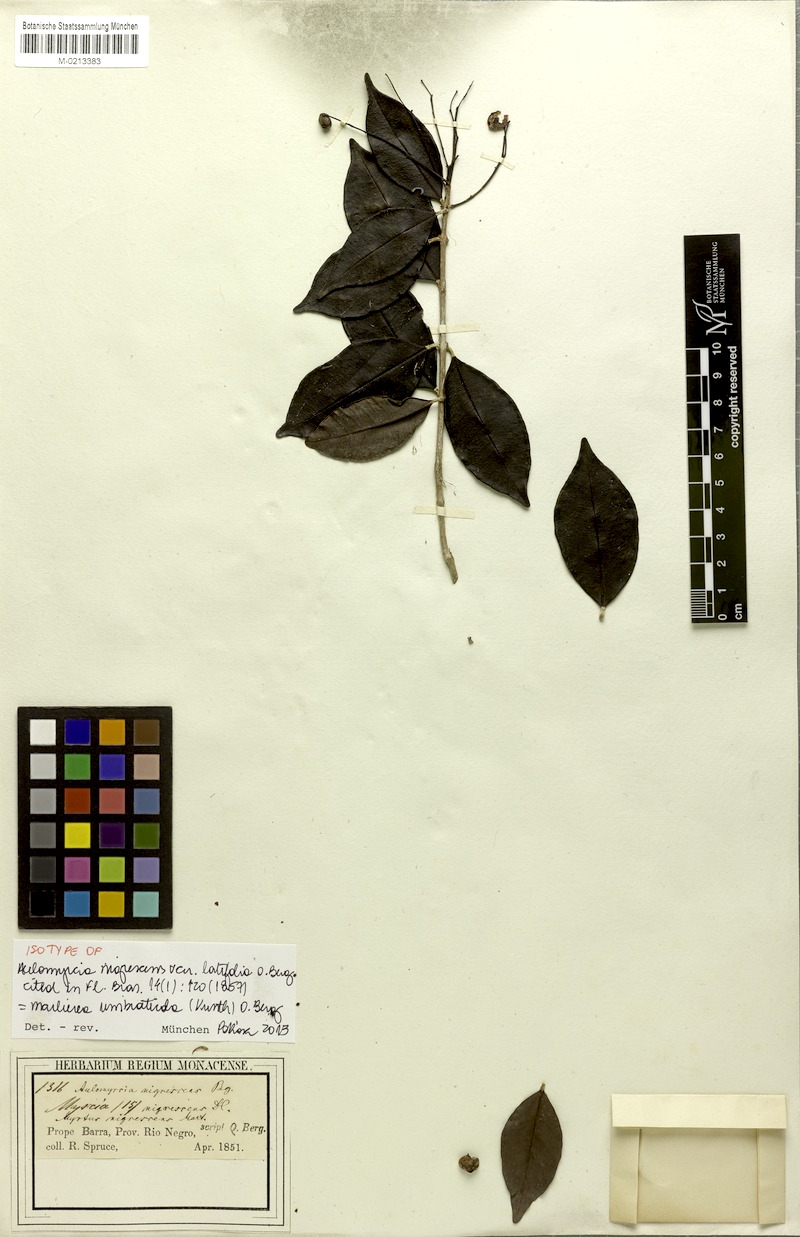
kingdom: Plantae
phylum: Tracheophyta
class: Magnoliopsida
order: Myrtales
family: Myrtaceae
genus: Myrcia
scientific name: Myrcia umbraticola
